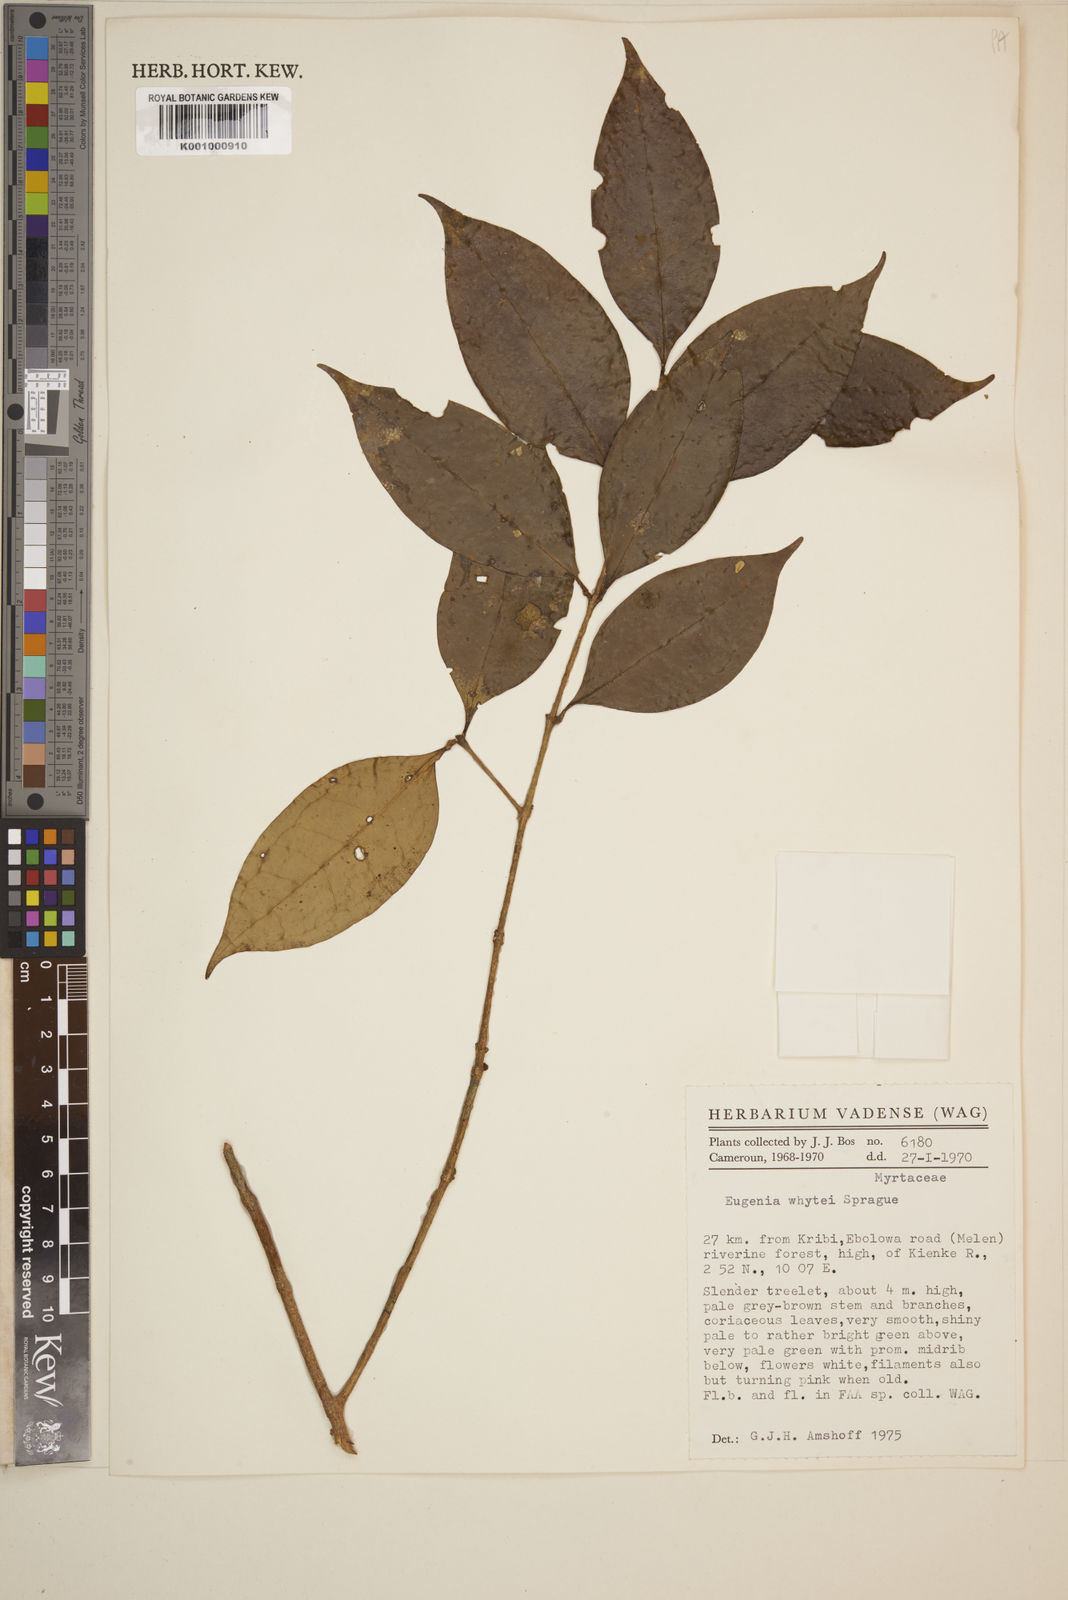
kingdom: Plantae
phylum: Tracheophyta
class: Magnoliopsida
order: Myrtales
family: Myrtaceae
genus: Eugenia
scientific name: Eugenia whytei
